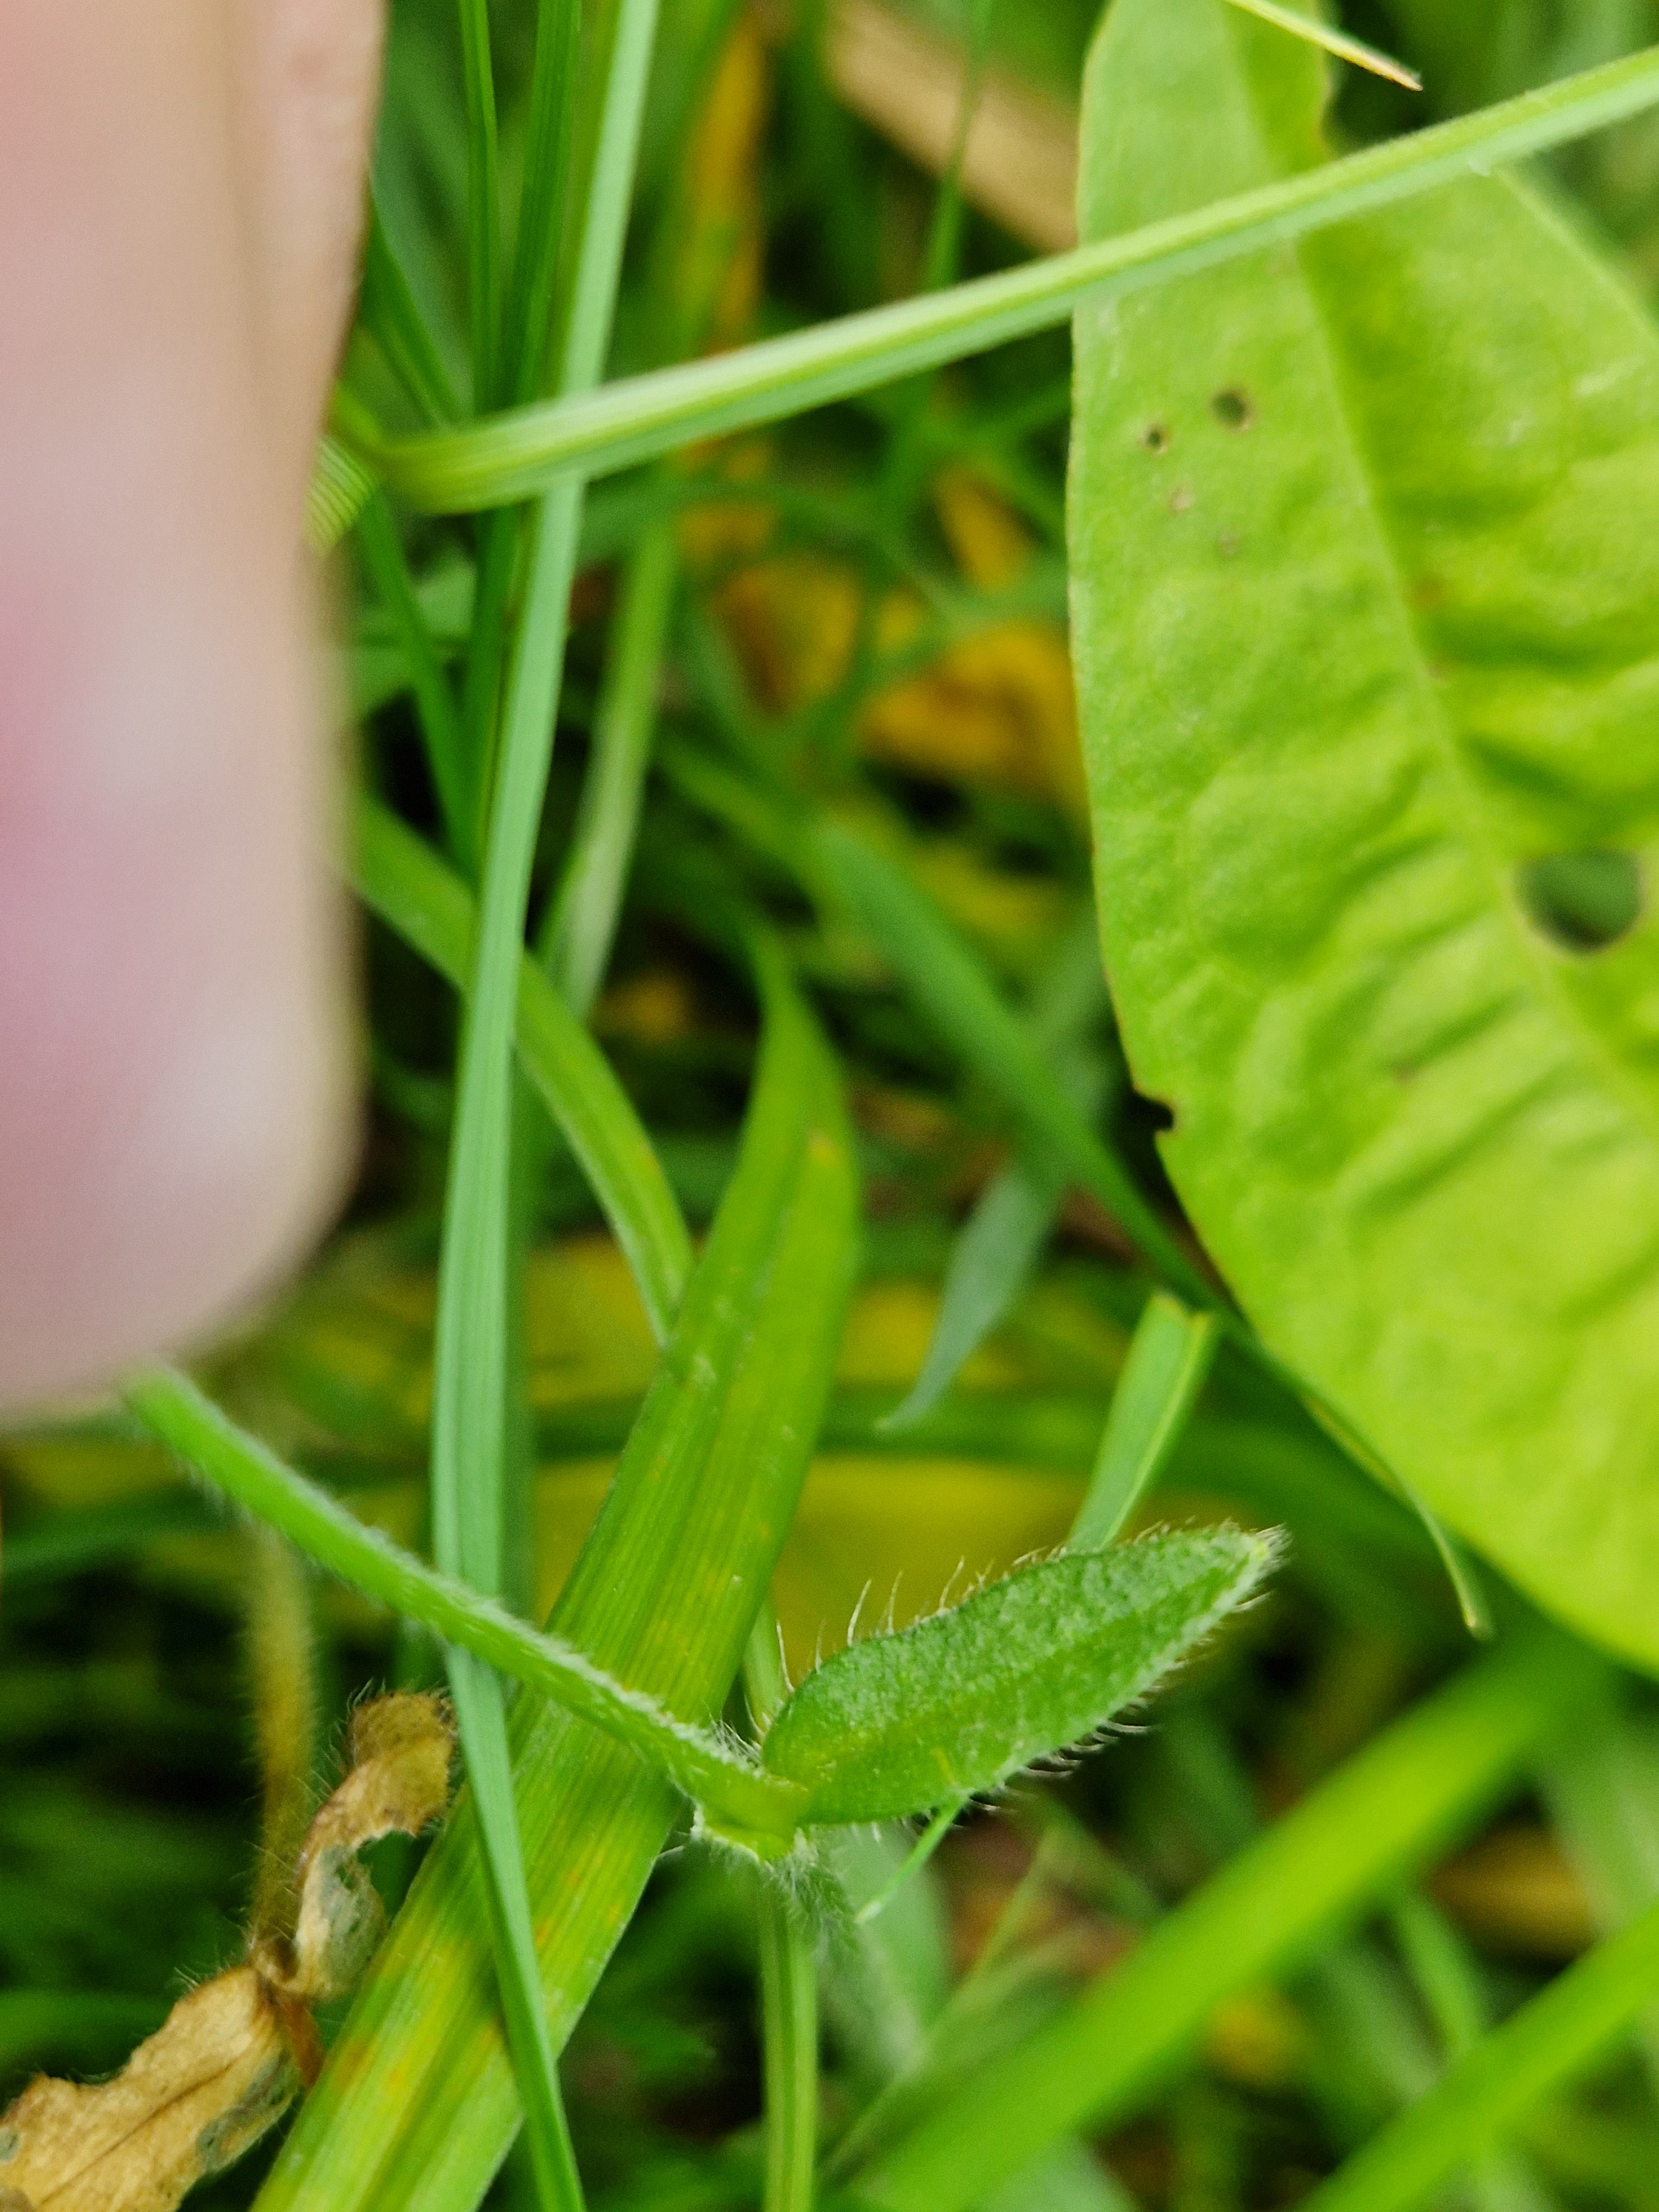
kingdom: Plantae
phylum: Tracheophyta
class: Magnoliopsida
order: Caryophyllales
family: Caryophyllaceae
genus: Cerastium
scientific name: Cerastium fontanum
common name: Almindelig hønsetarm
